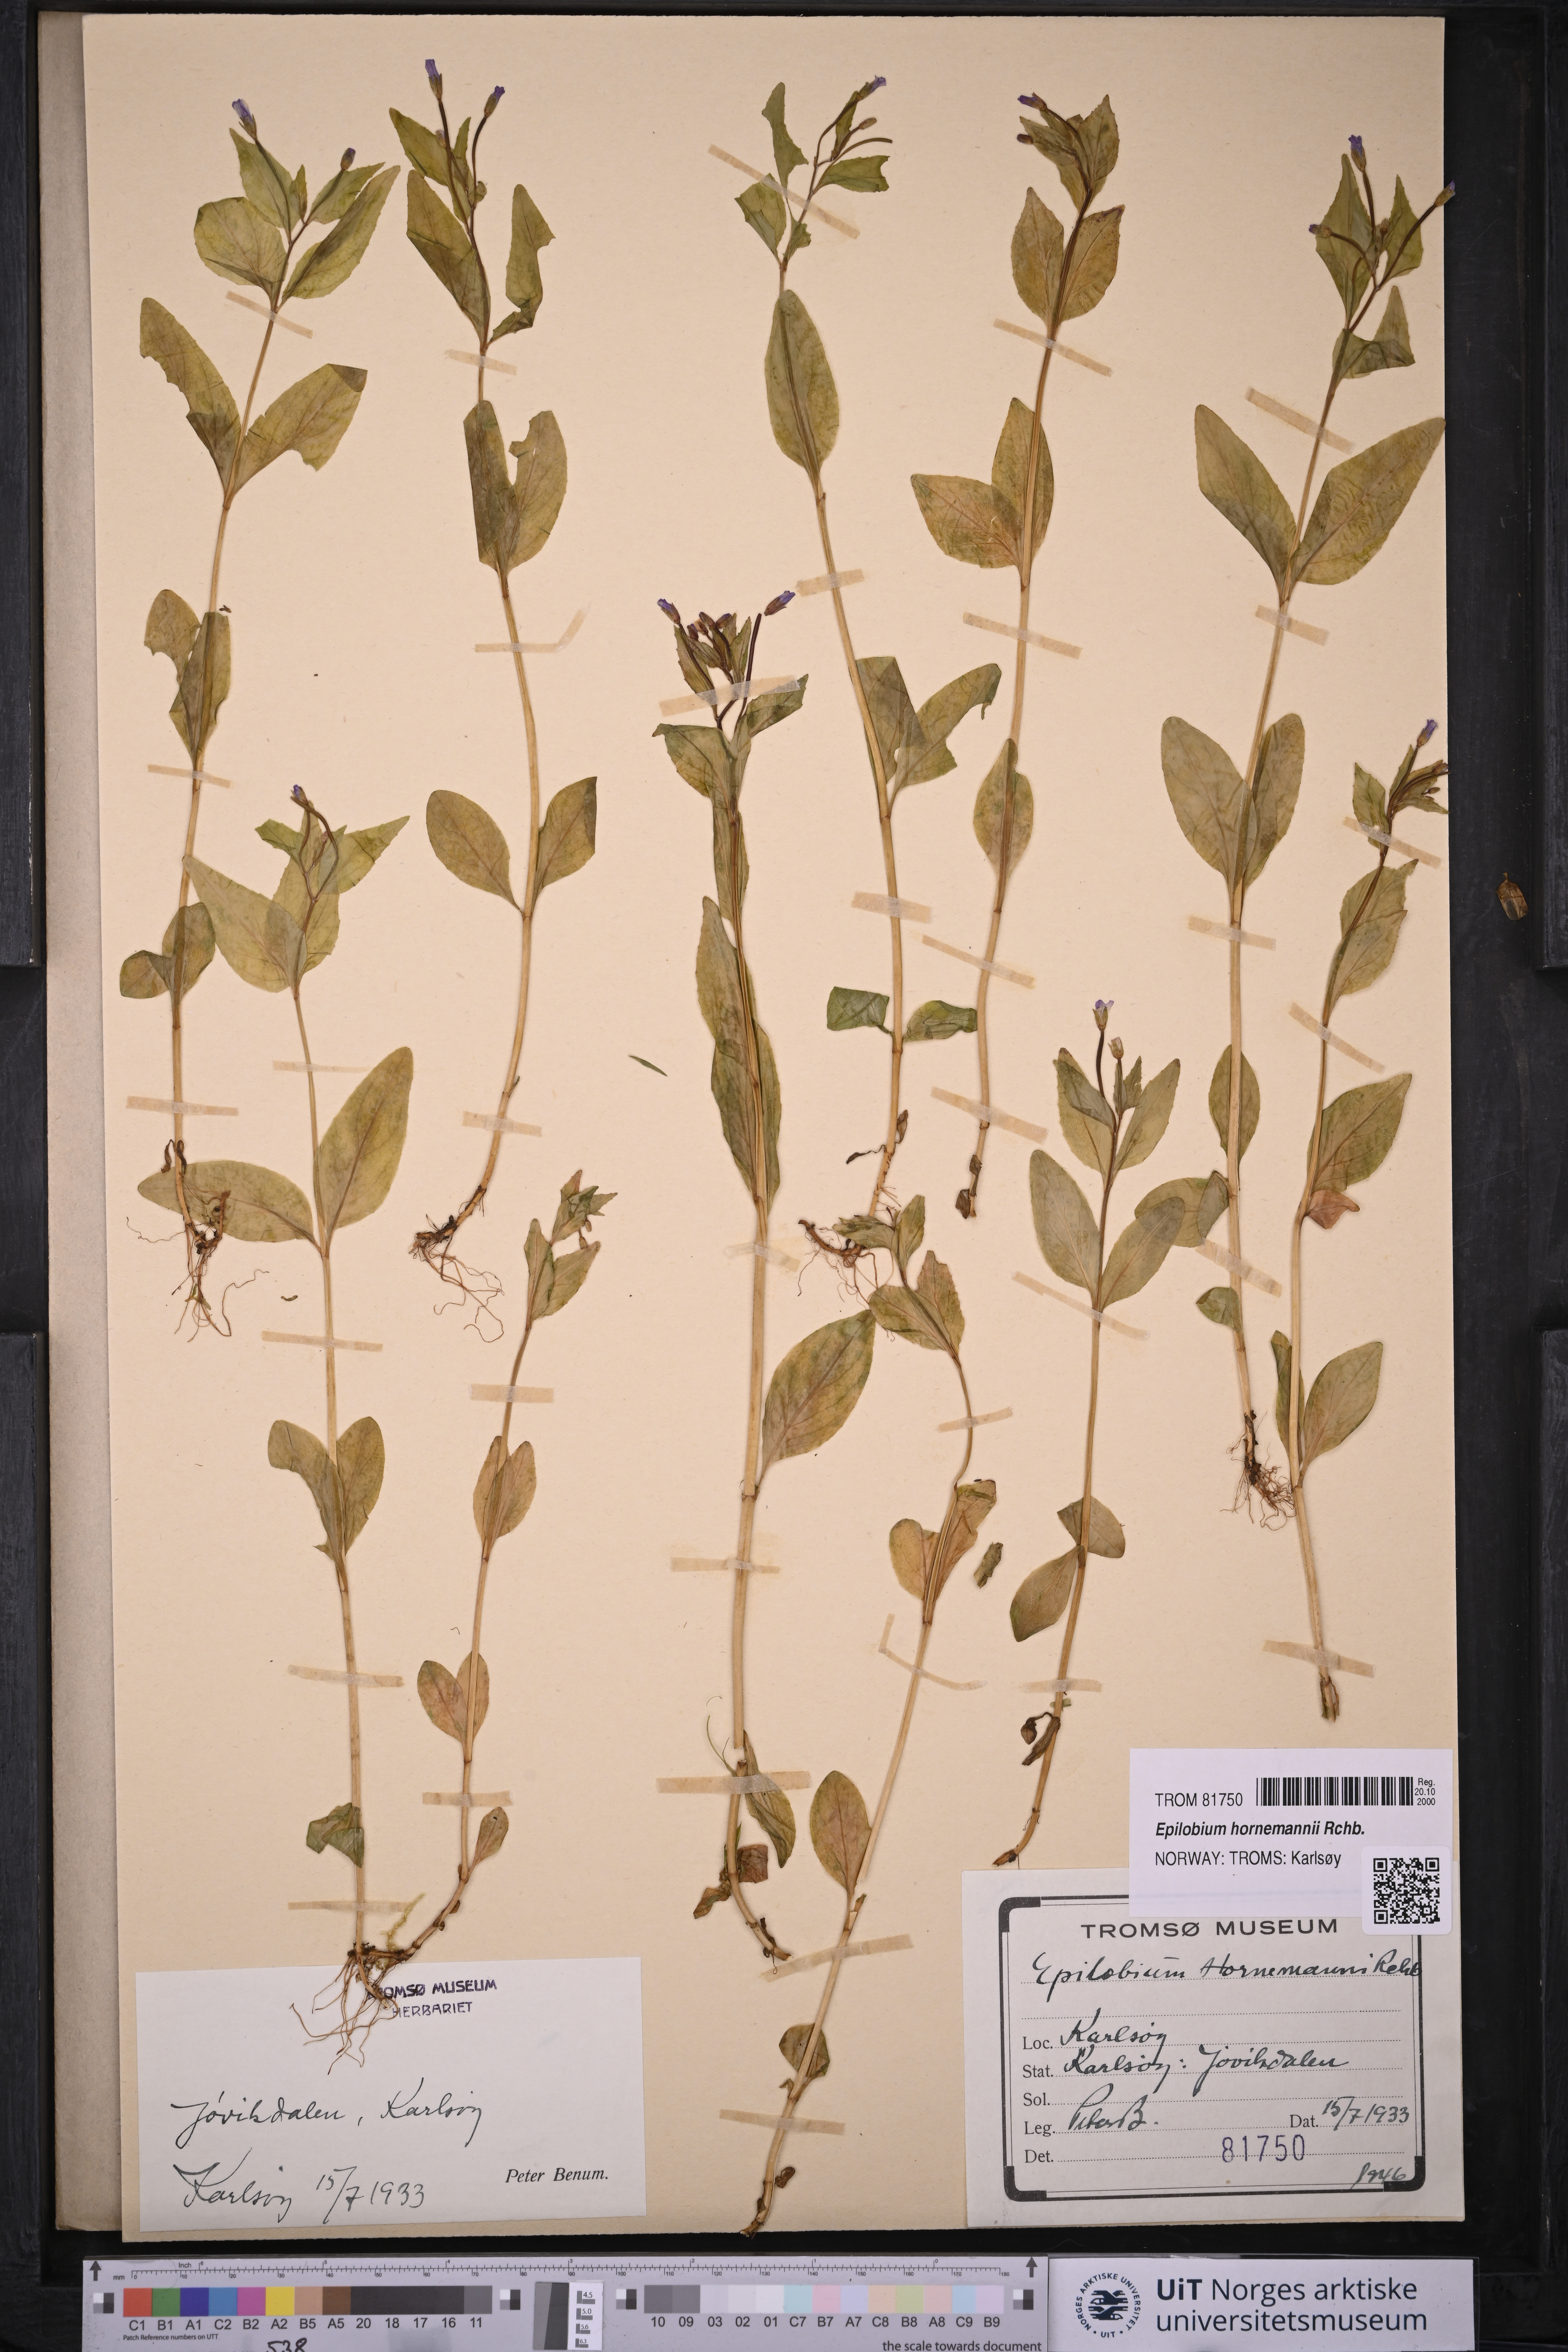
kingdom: Plantae
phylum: Tracheophyta
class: Magnoliopsida
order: Myrtales
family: Onagraceae
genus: Epilobium
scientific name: Epilobium hornemannii
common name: Hornemann's willowherb
